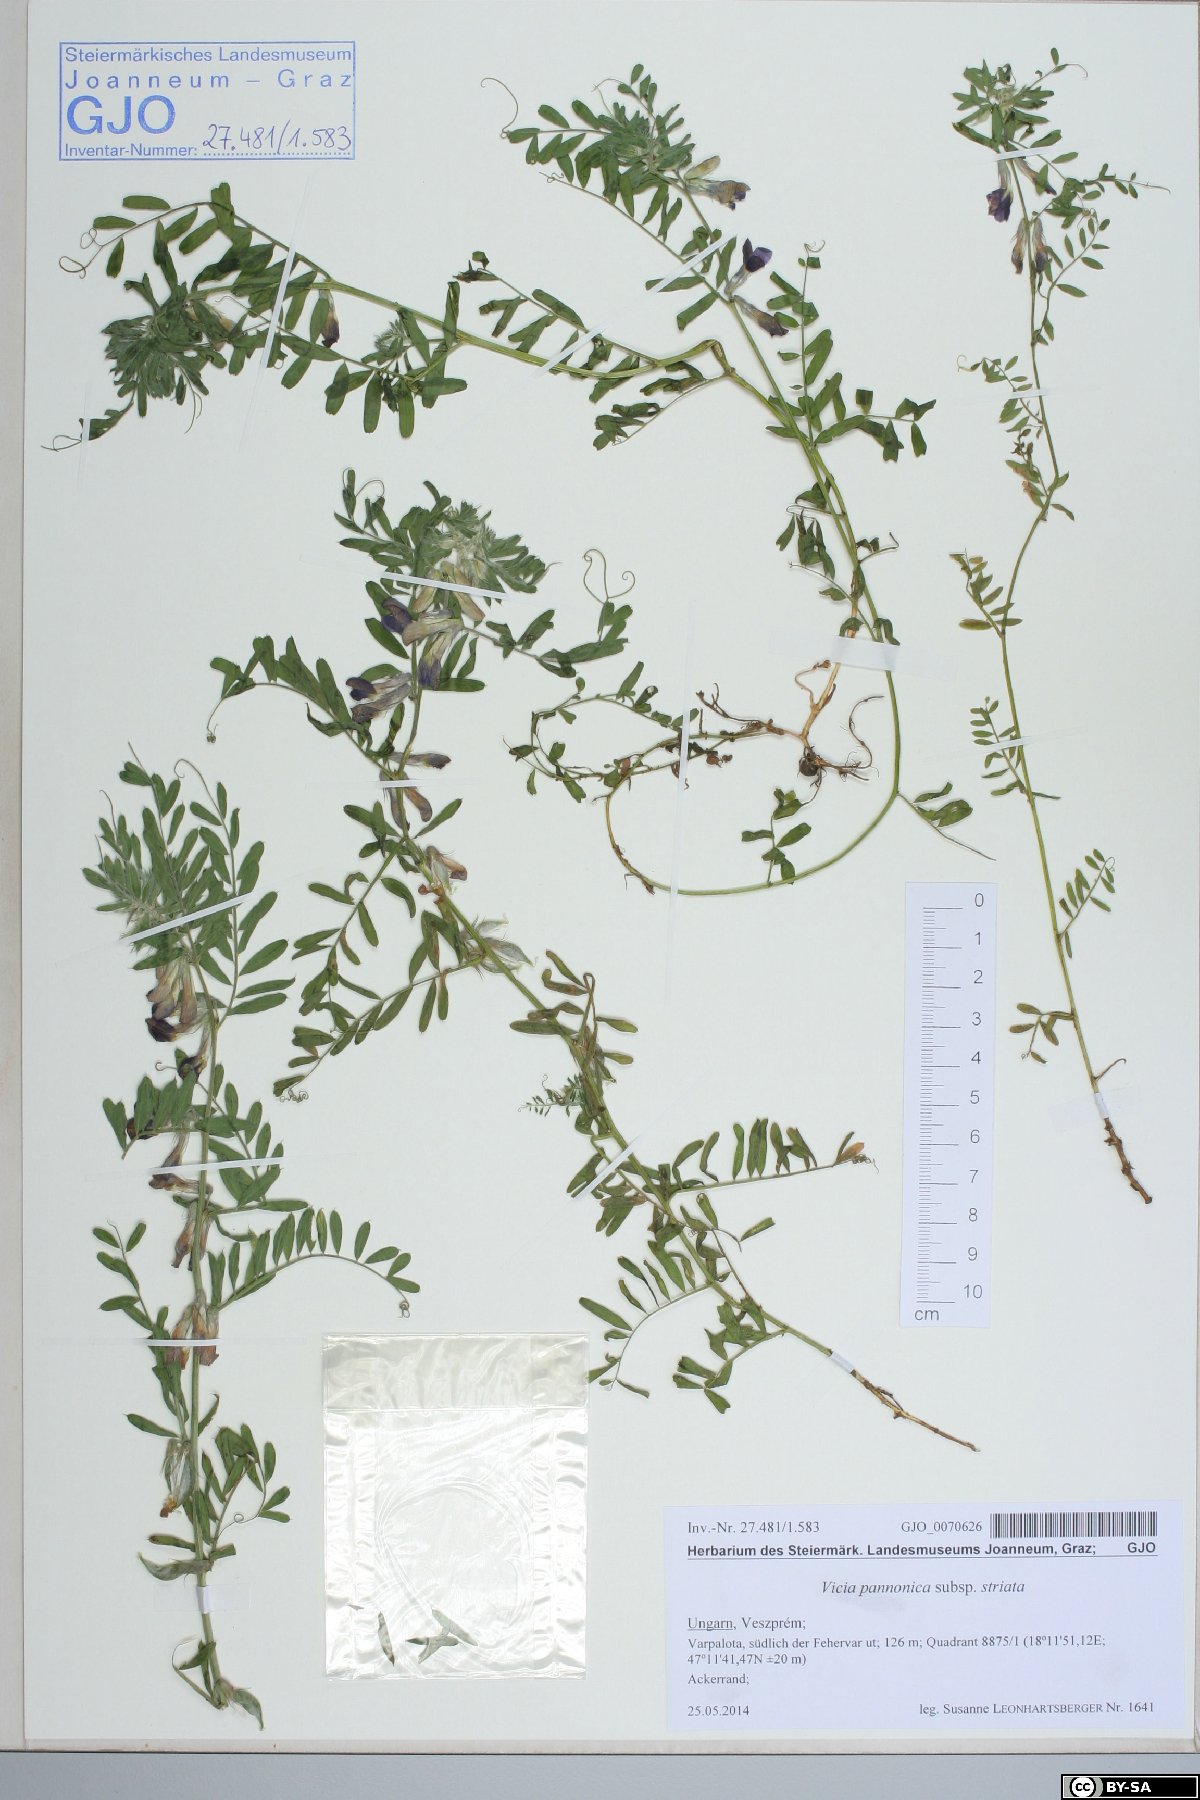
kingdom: Plantae
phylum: Tracheophyta
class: Magnoliopsida
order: Fabales
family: Fabaceae
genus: Vicia
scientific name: Vicia pannonica
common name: Hungarian vetch
